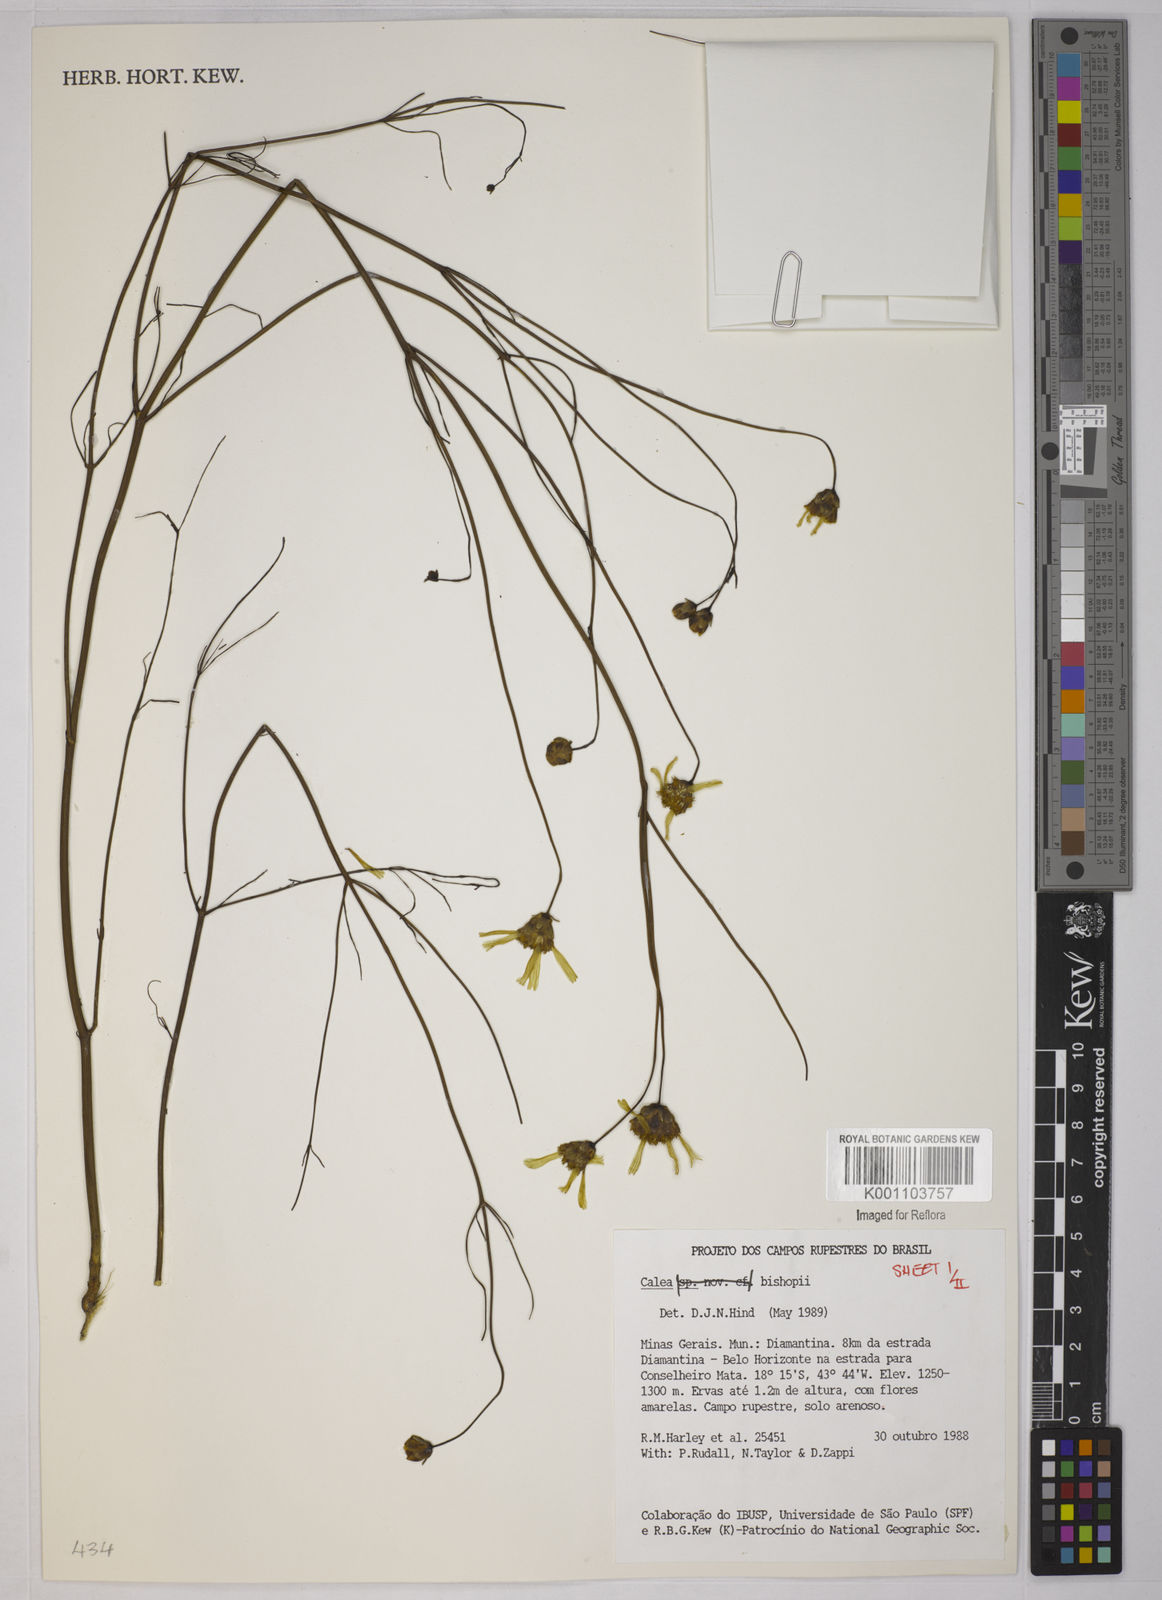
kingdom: Plantae
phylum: Tracheophyta
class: Magnoliopsida
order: Asterales
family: Asteraceae
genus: Calea
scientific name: Calea bishopii
